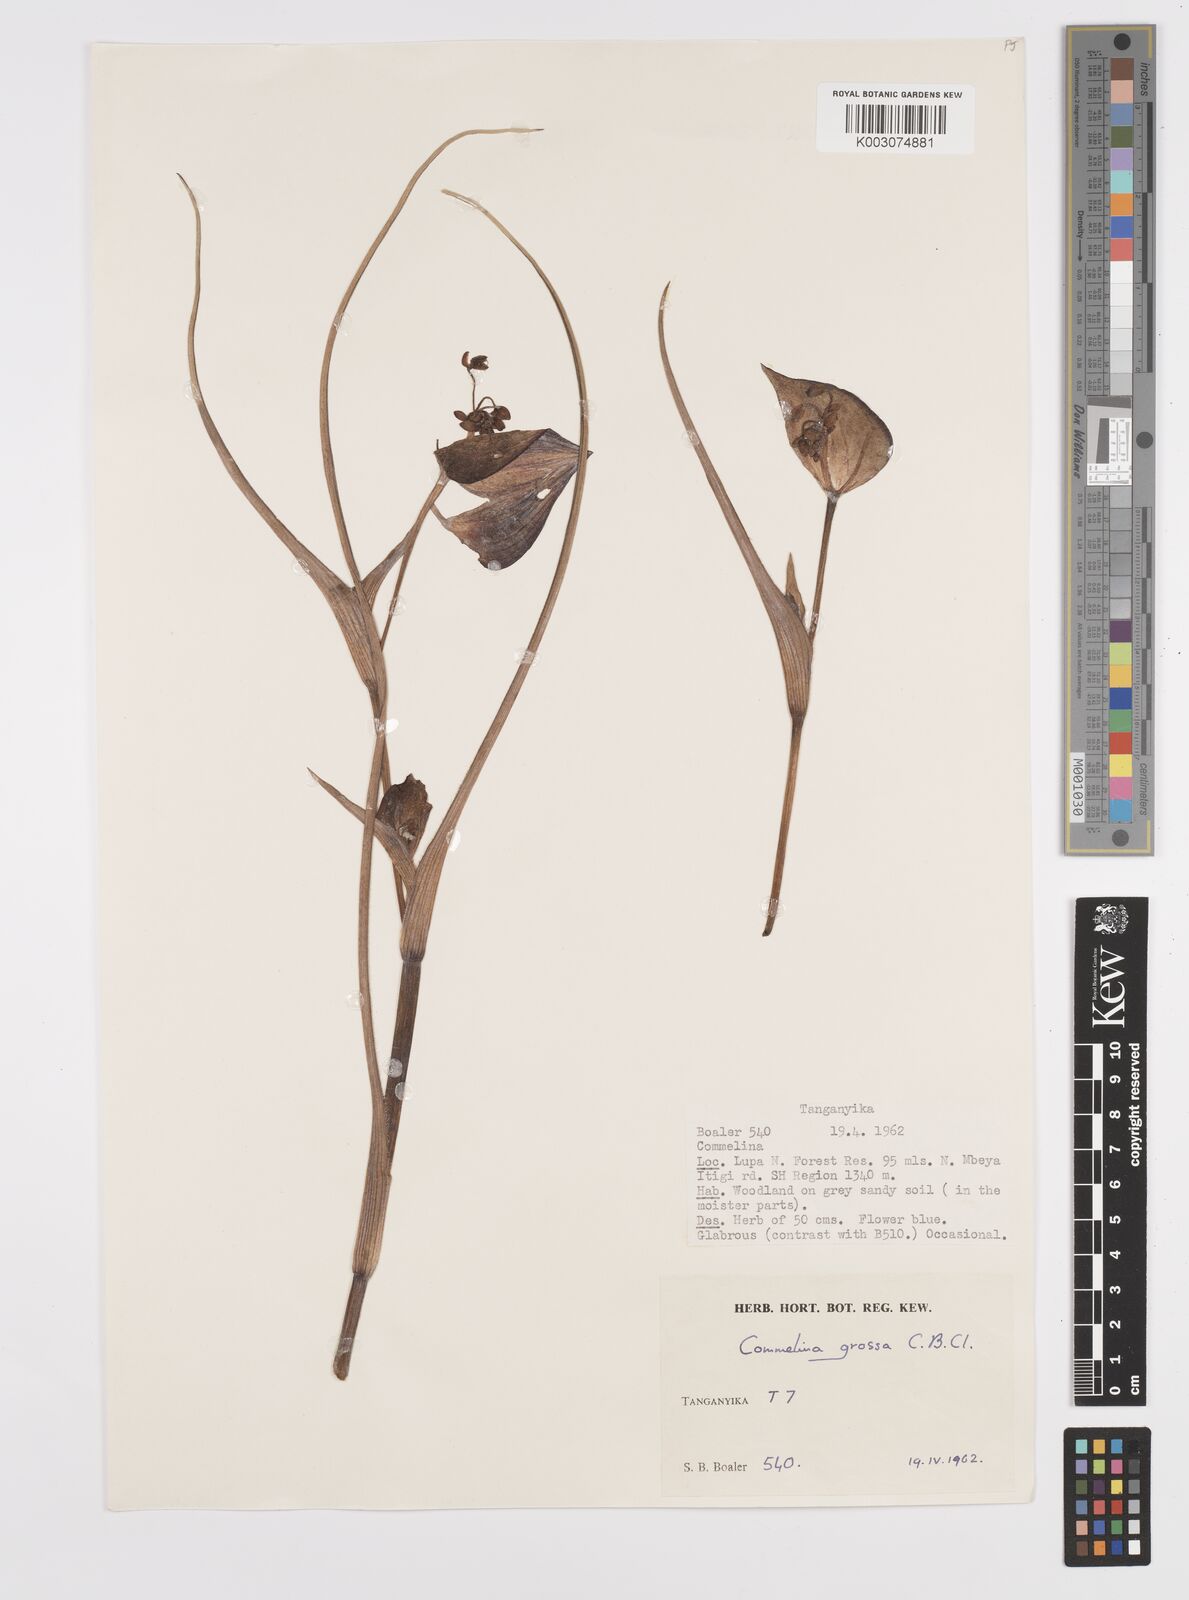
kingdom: Plantae
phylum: Tracheophyta
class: Liliopsida
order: Commelinales
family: Commelinaceae
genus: Commelina
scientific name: Commelina grossa
